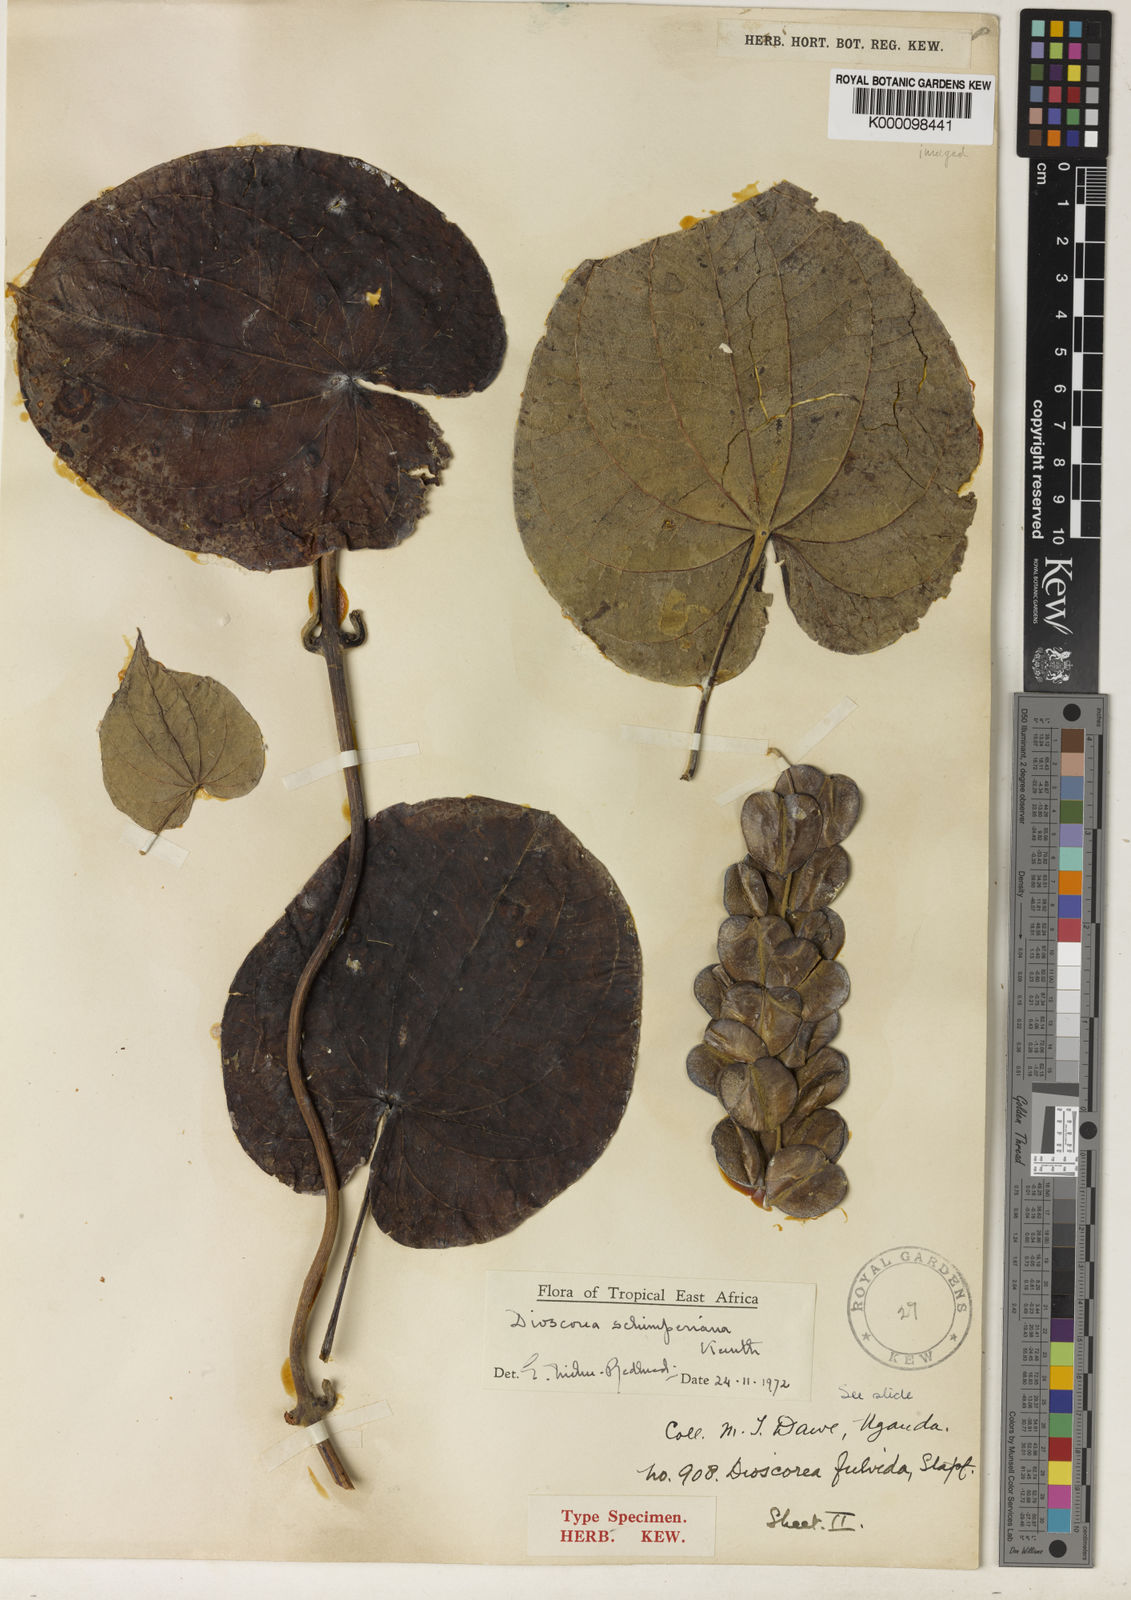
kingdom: Plantae
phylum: Tracheophyta
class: Liliopsida
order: Dioscoreales
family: Dioscoreaceae
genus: Dioscorea
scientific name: Dioscorea schimperiana
